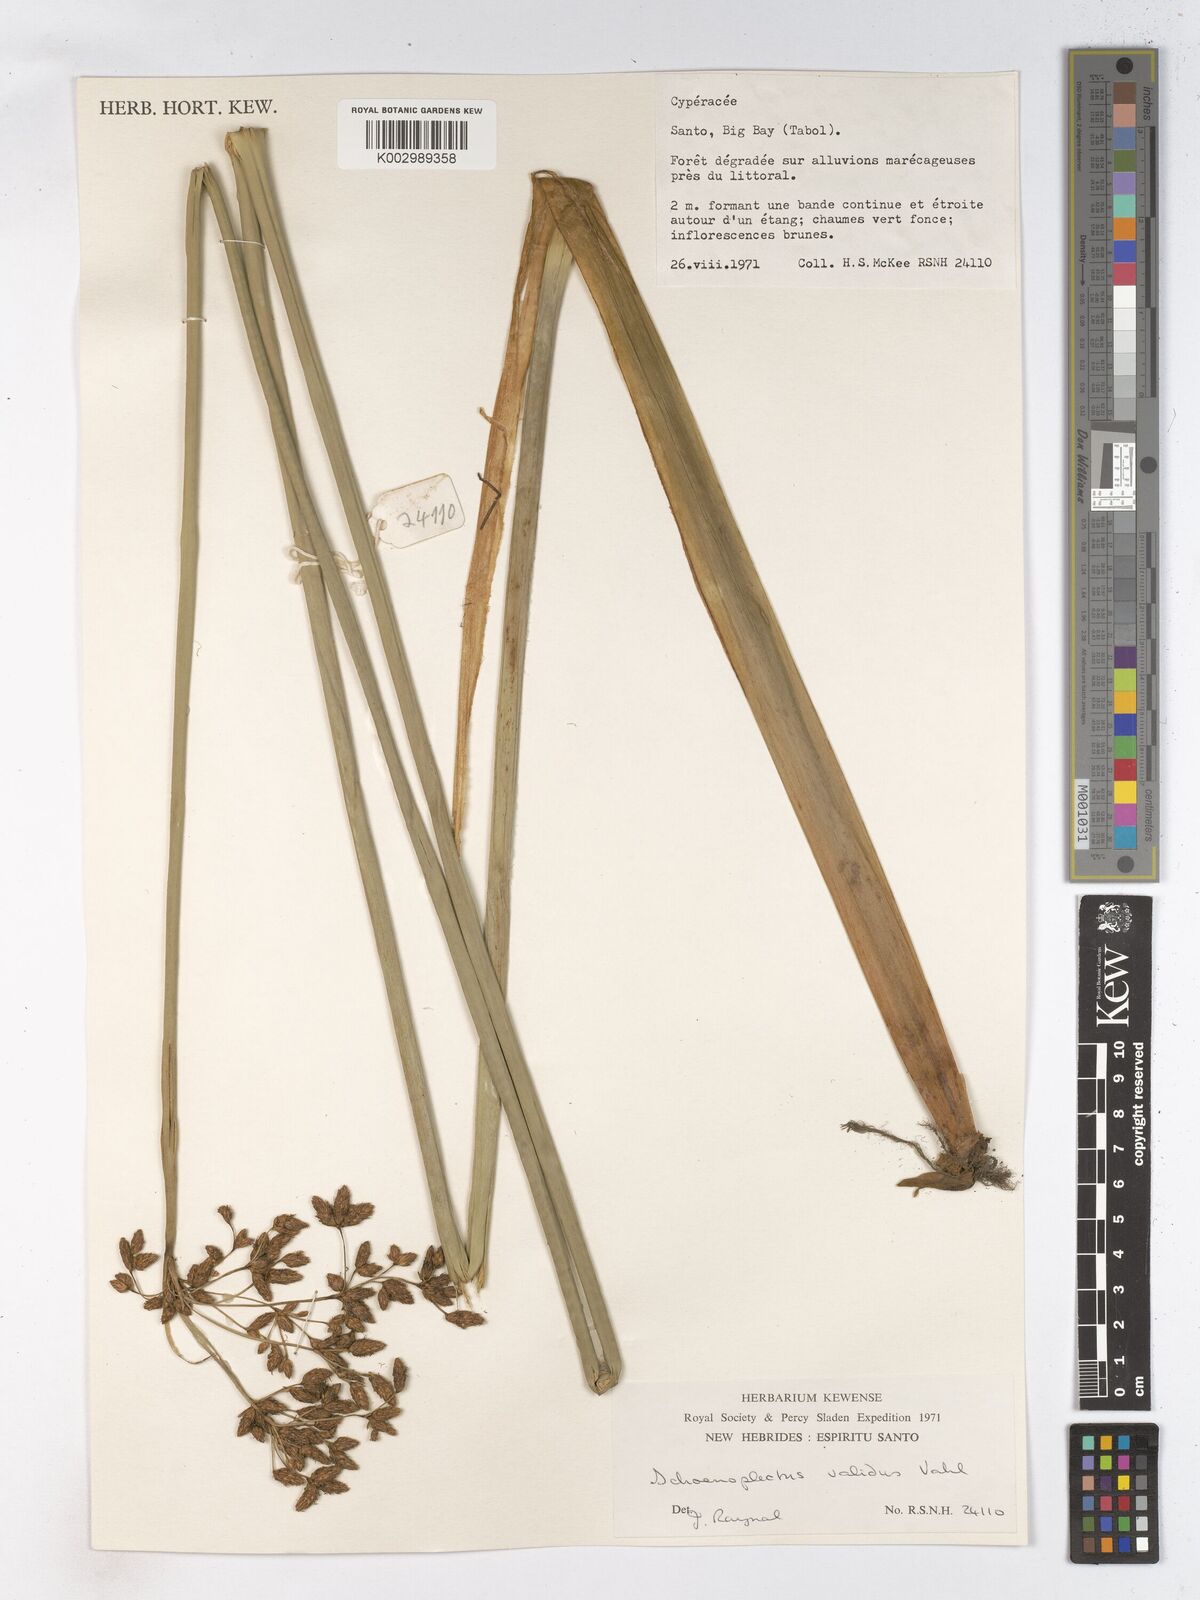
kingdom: Plantae
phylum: Tracheophyta
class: Liliopsida
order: Poales
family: Cyperaceae
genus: Schoenoplectus
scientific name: Schoenoplectus lacustris
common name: Common club-rush
